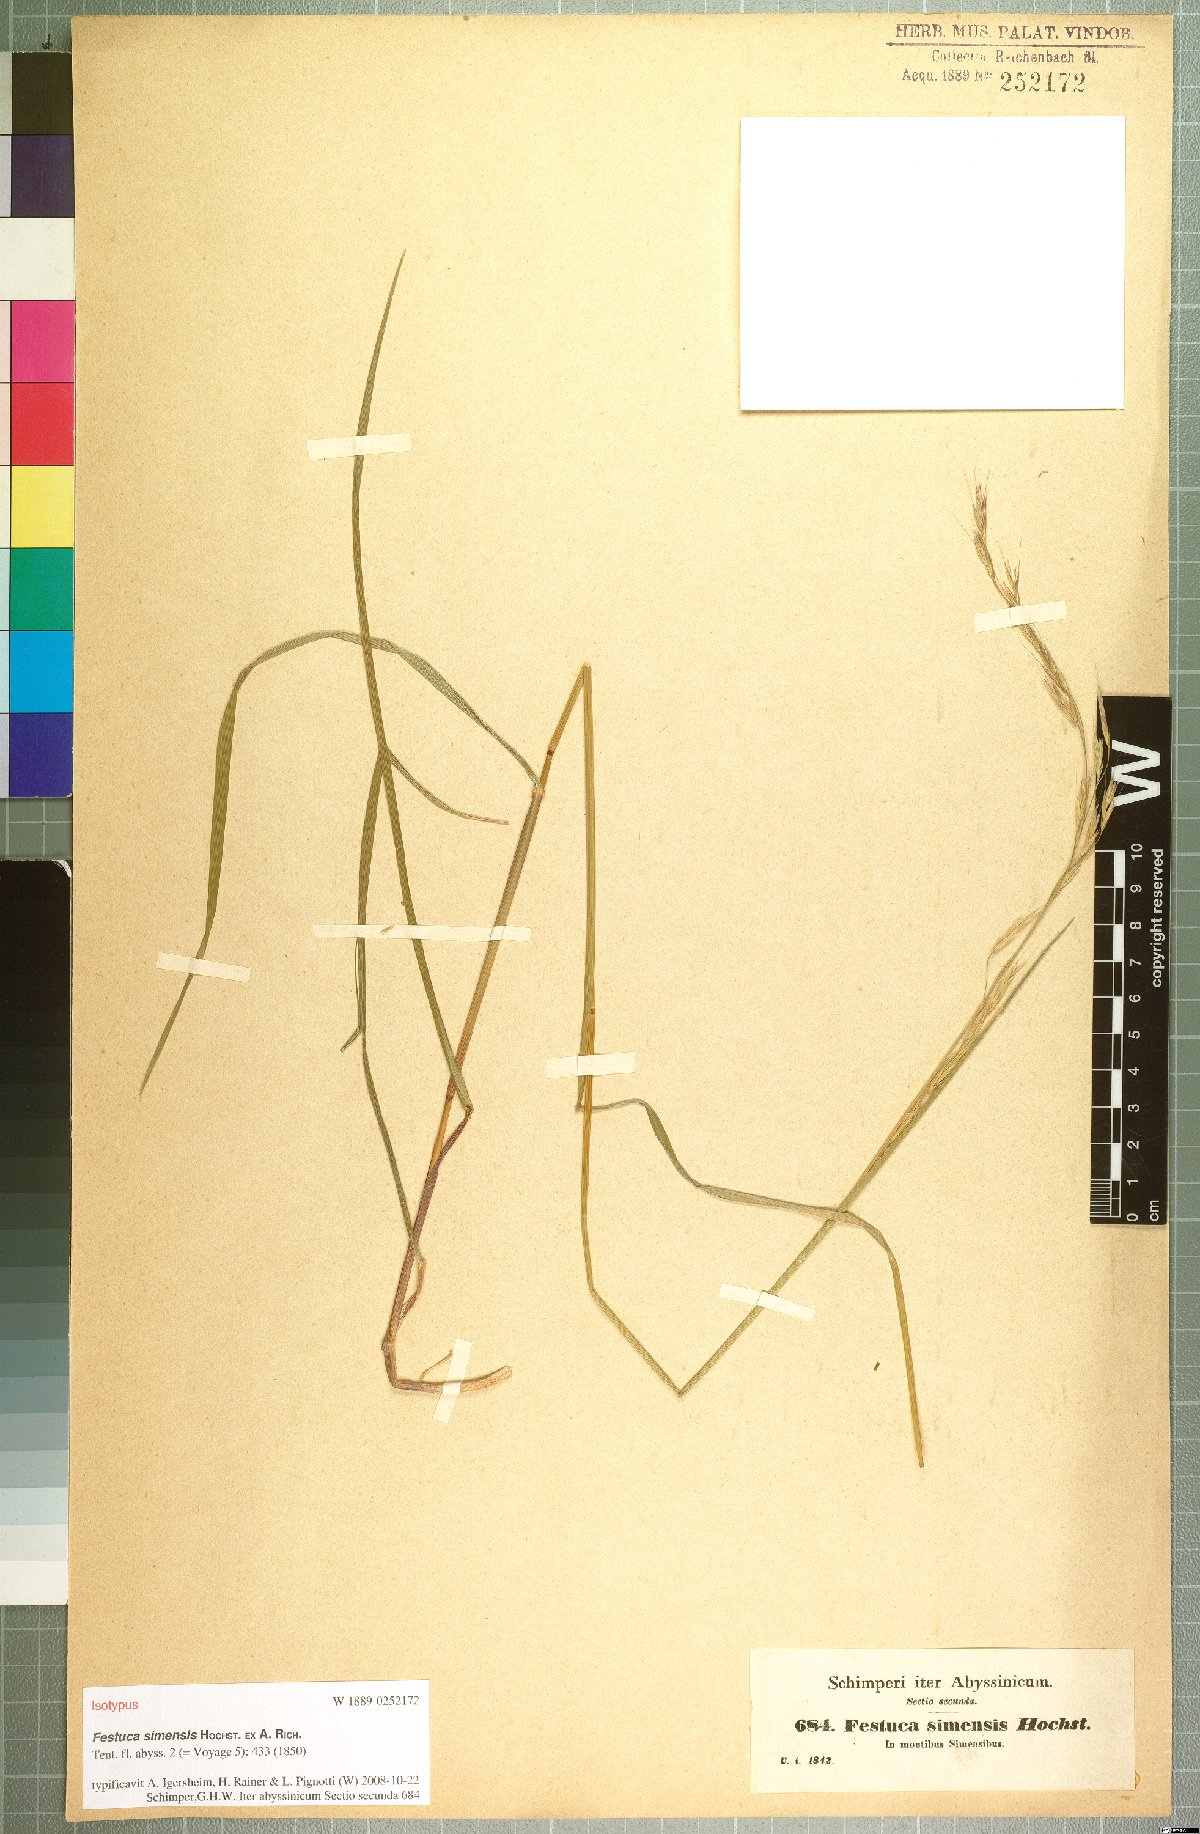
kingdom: Plantae
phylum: Tracheophyta
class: Liliopsida
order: Poales
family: Poaceae
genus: Festuca
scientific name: Festuca simensis
